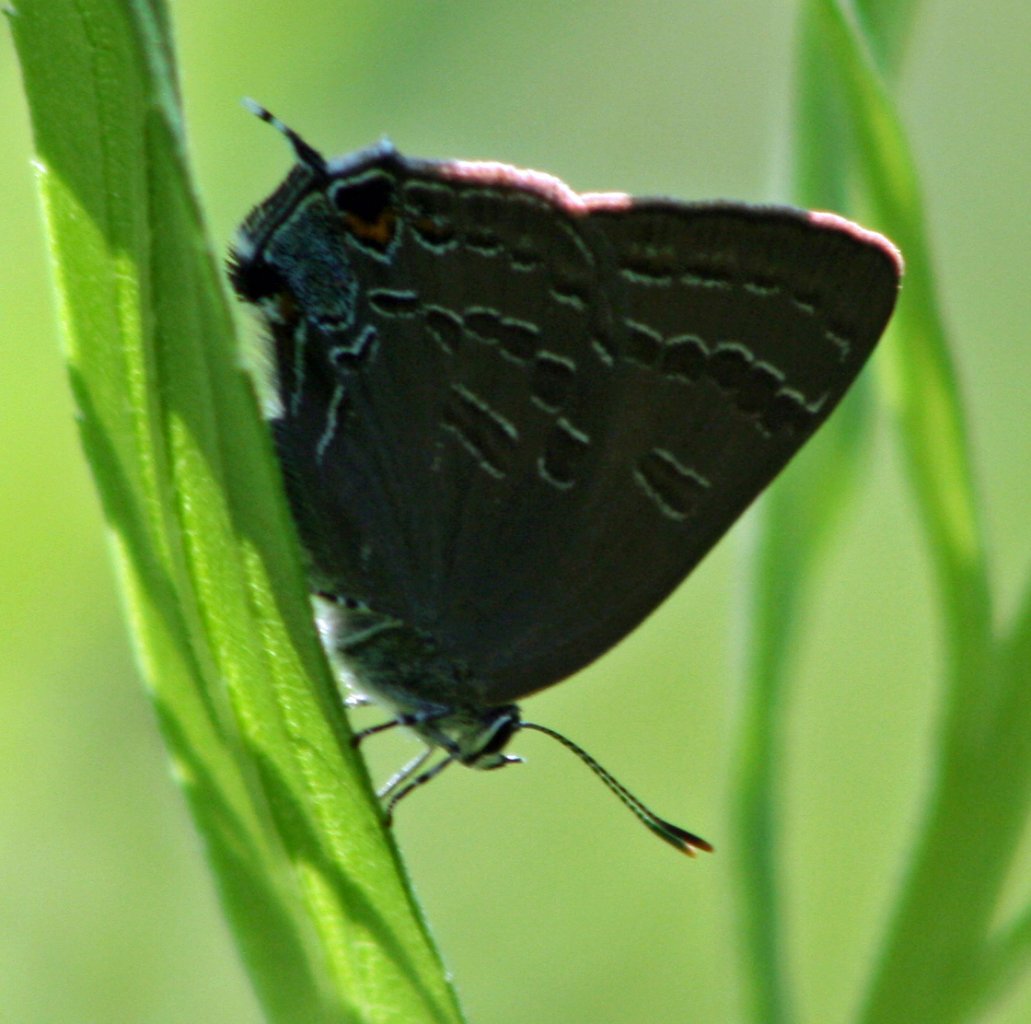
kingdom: Animalia
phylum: Arthropoda
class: Insecta
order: Lepidoptera
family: Lycaenidae
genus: Strymon
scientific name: Strymon caryaevorus
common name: Hickory Hairstreak
